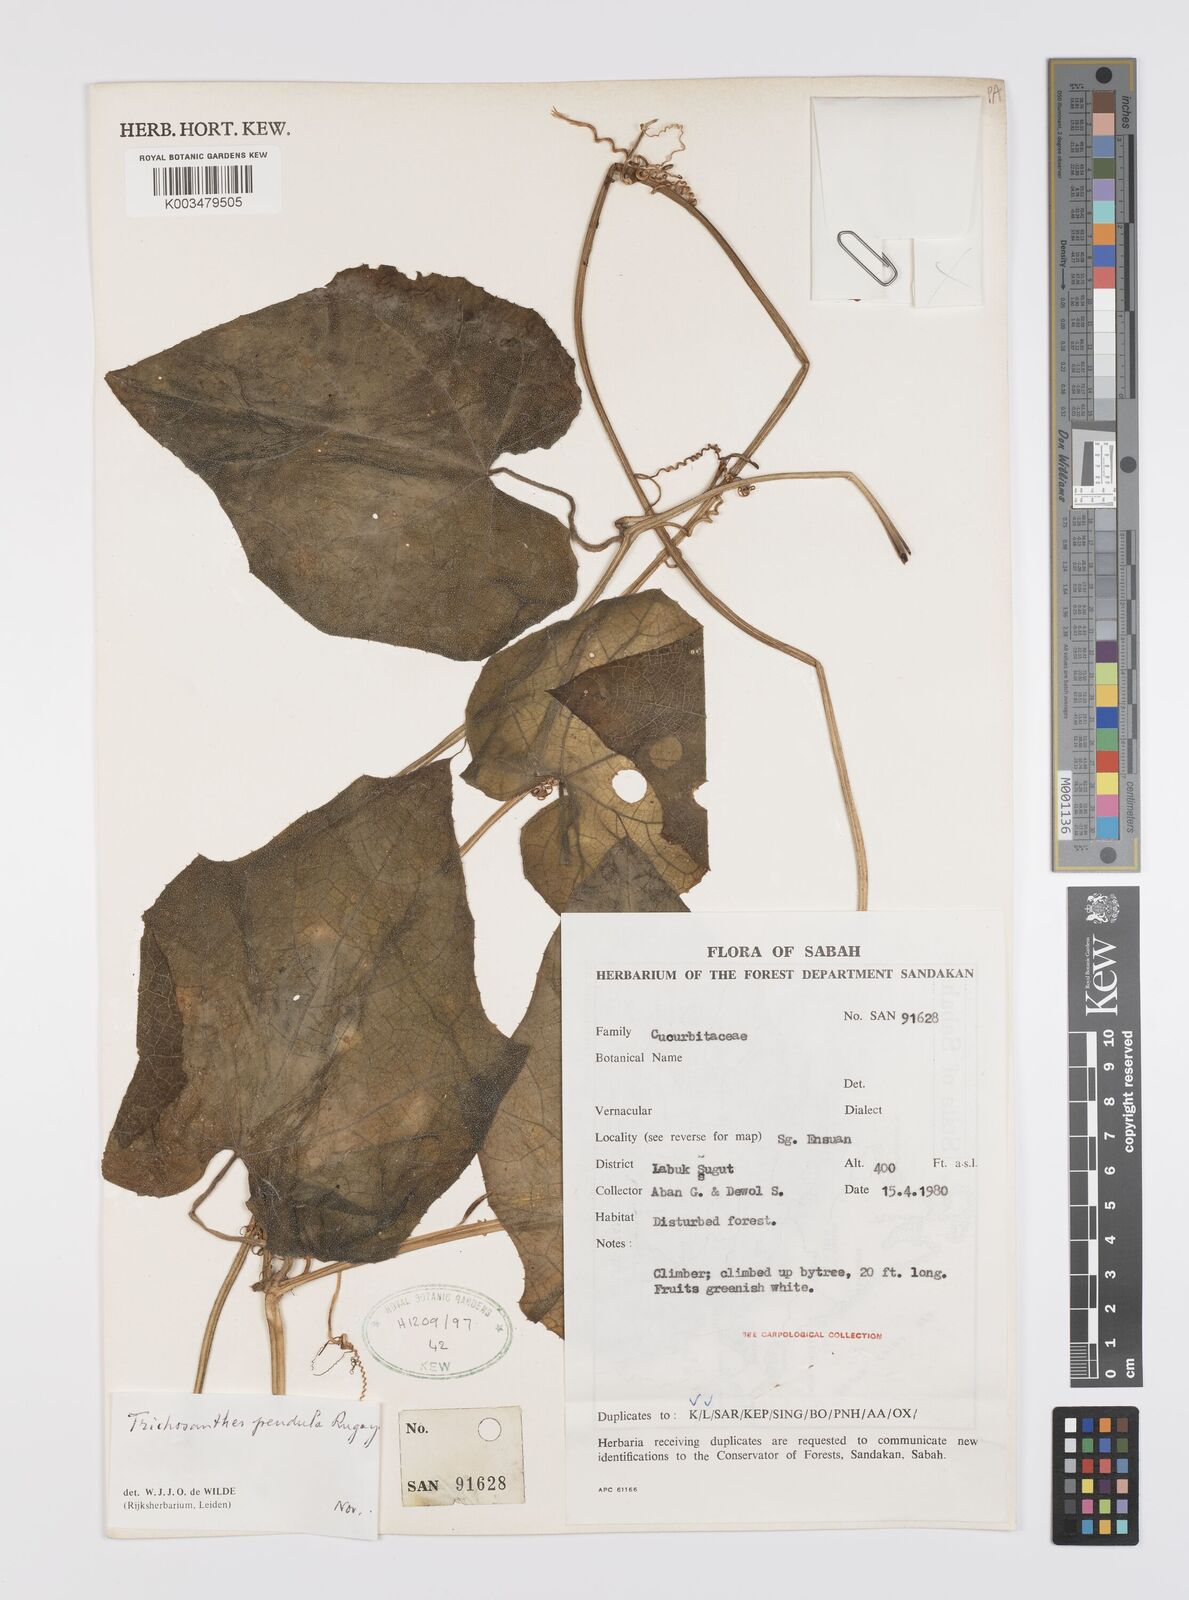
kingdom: Plantae
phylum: Tracheophyta
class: Magnoliopsida
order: Cucurbitales
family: Cucurbitaceae
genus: Trichosanthes
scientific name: Trichosanthes pendula
